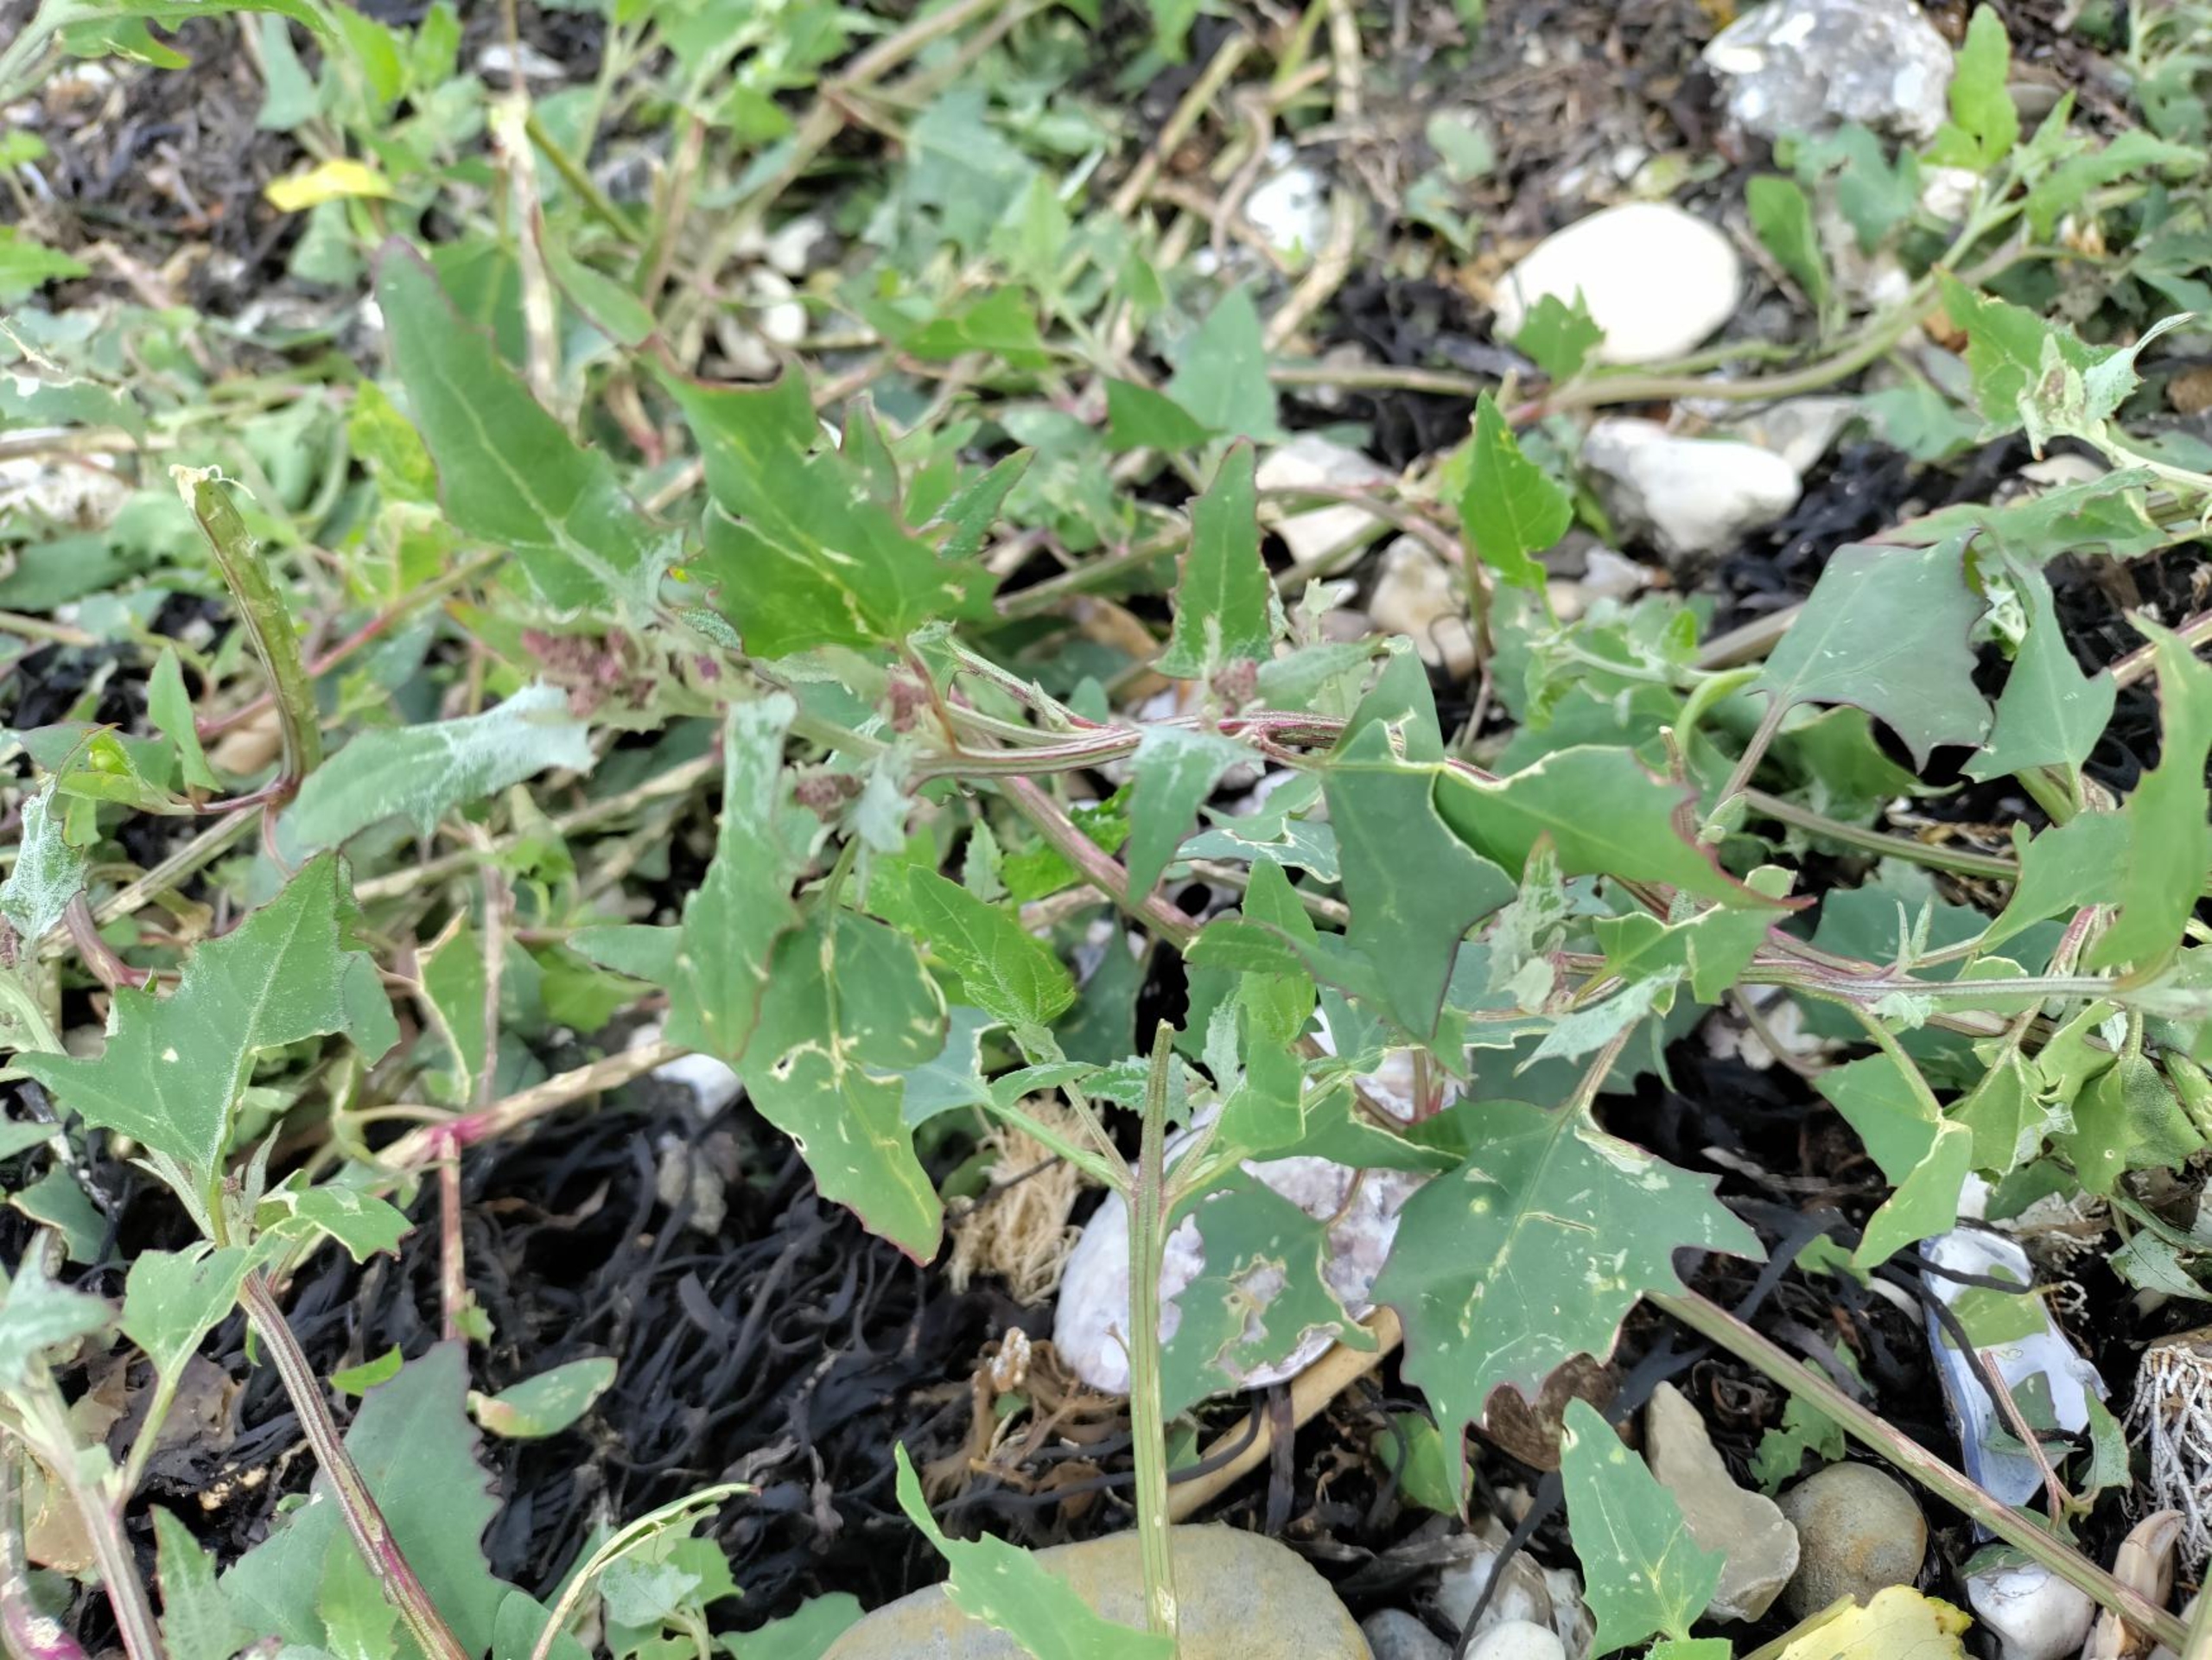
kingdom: Plantae
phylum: Tracheophyta
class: Magnoliopsida
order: Caryophyllales
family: Amaranthaceae
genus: Atriplex
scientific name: Atriplex prostrata
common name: Spyd-mælde
